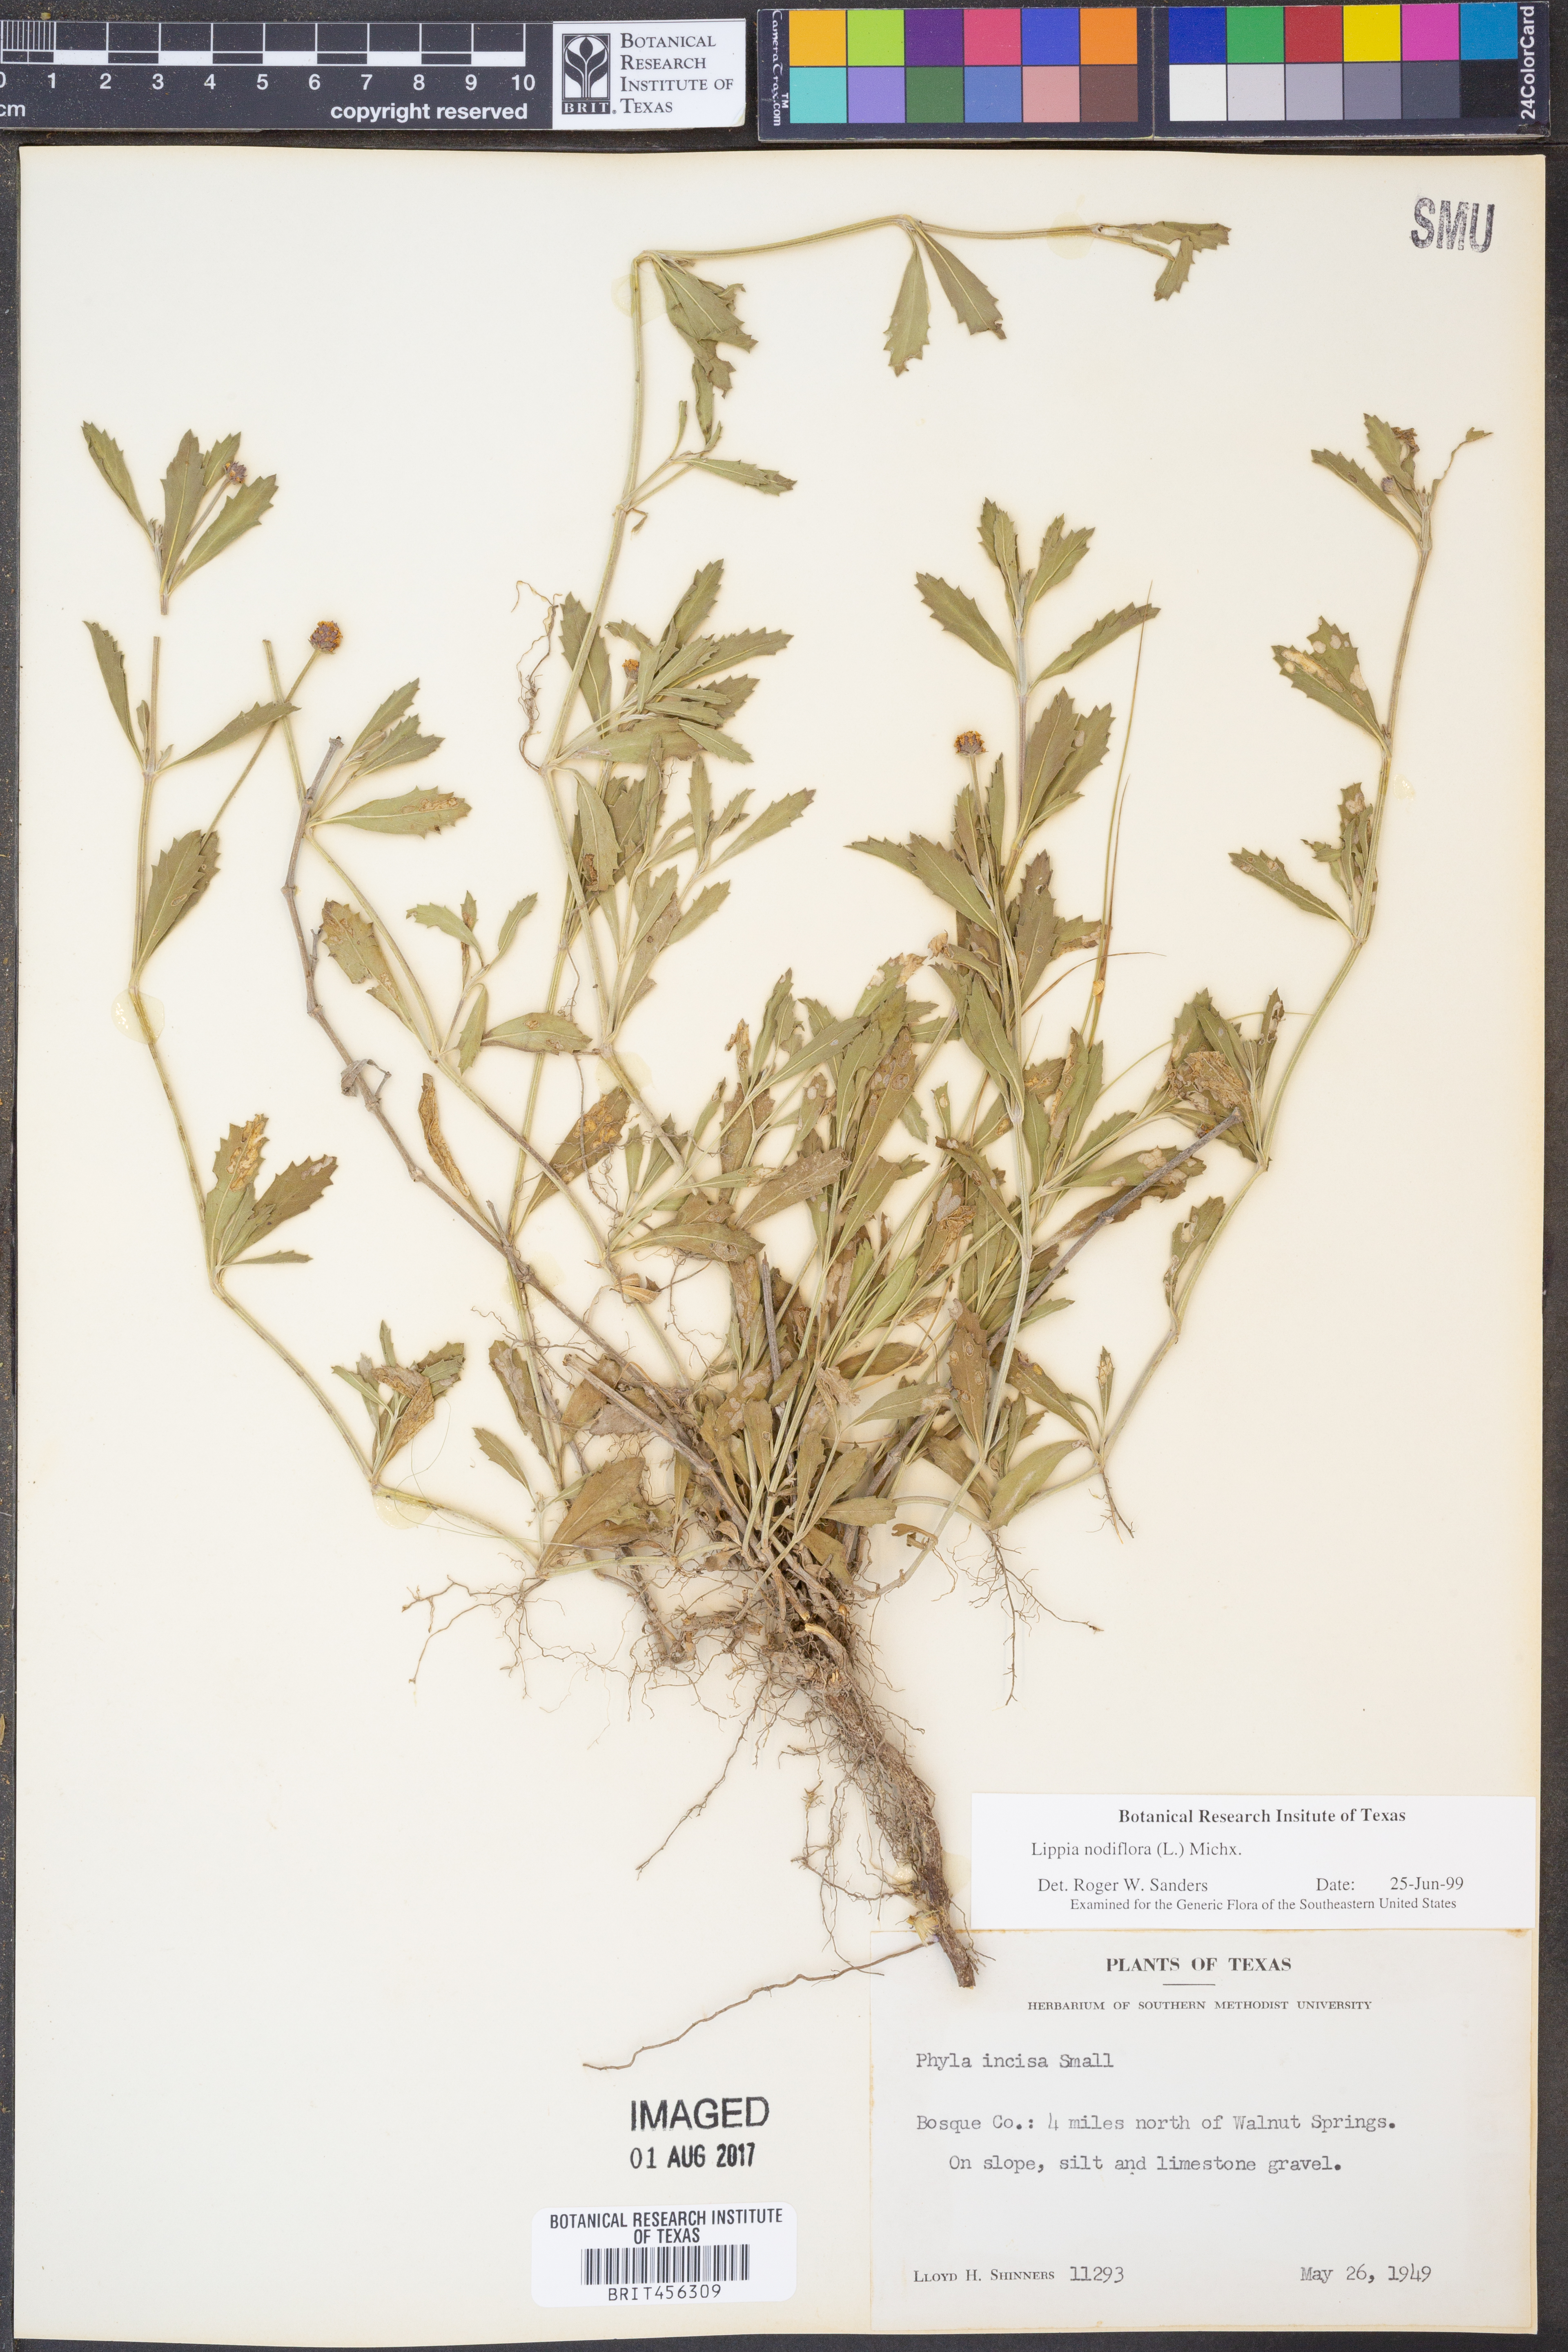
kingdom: Plantae
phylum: Tracheophyta
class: Magnoliopsida
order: Lamiales
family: Verbenaceae
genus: Phyla
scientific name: Phyla nodiflora
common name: Frogfruit
